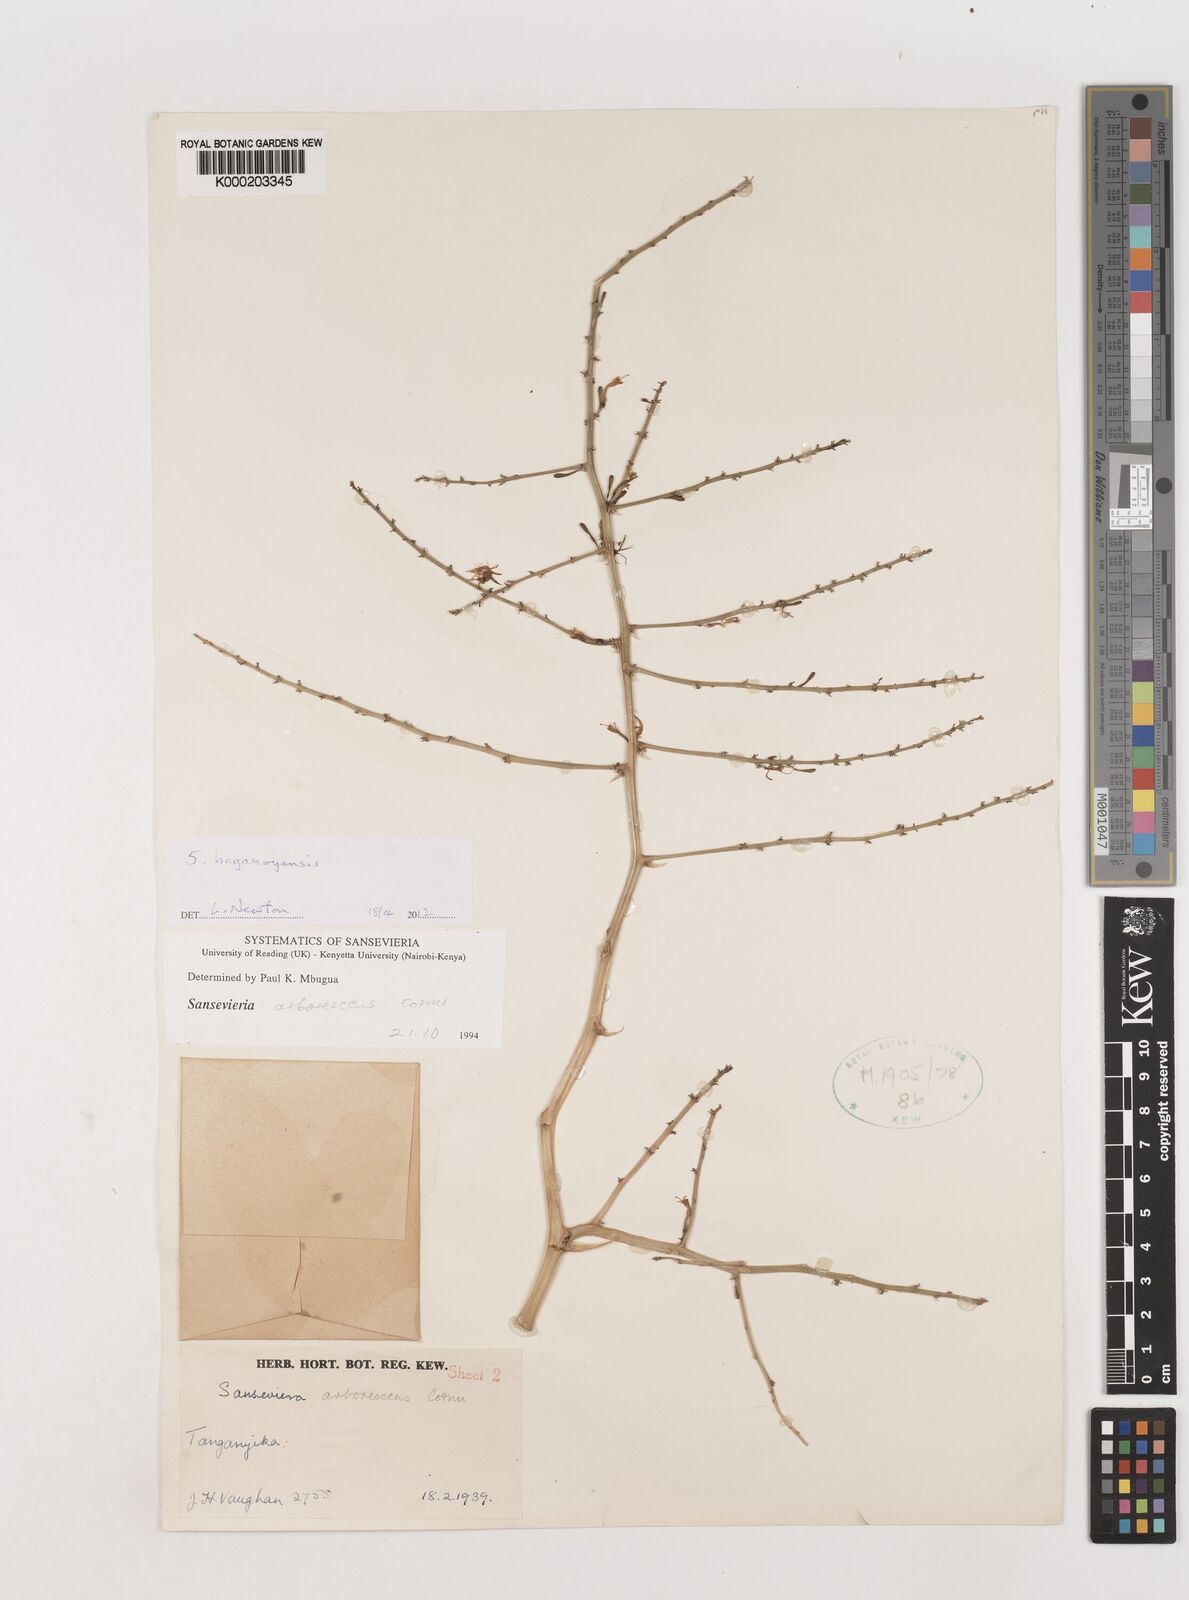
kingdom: Plantae
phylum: Tracheophyta
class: Liliopsida
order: Asparagales
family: Asparagaceae
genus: Dracaena
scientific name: Dracaena
